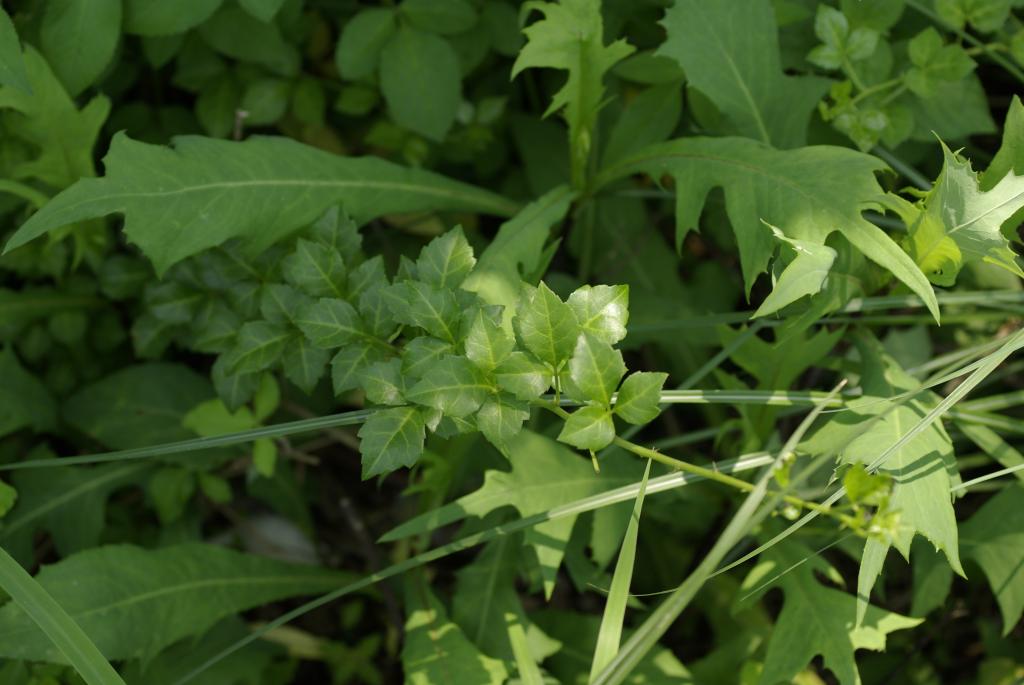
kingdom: Plantae
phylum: Tracheophyta
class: Magnoliopsida
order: Apiales
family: Araliaceae
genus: Eleutherococcus
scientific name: Eleutherococcus trifoliatus
